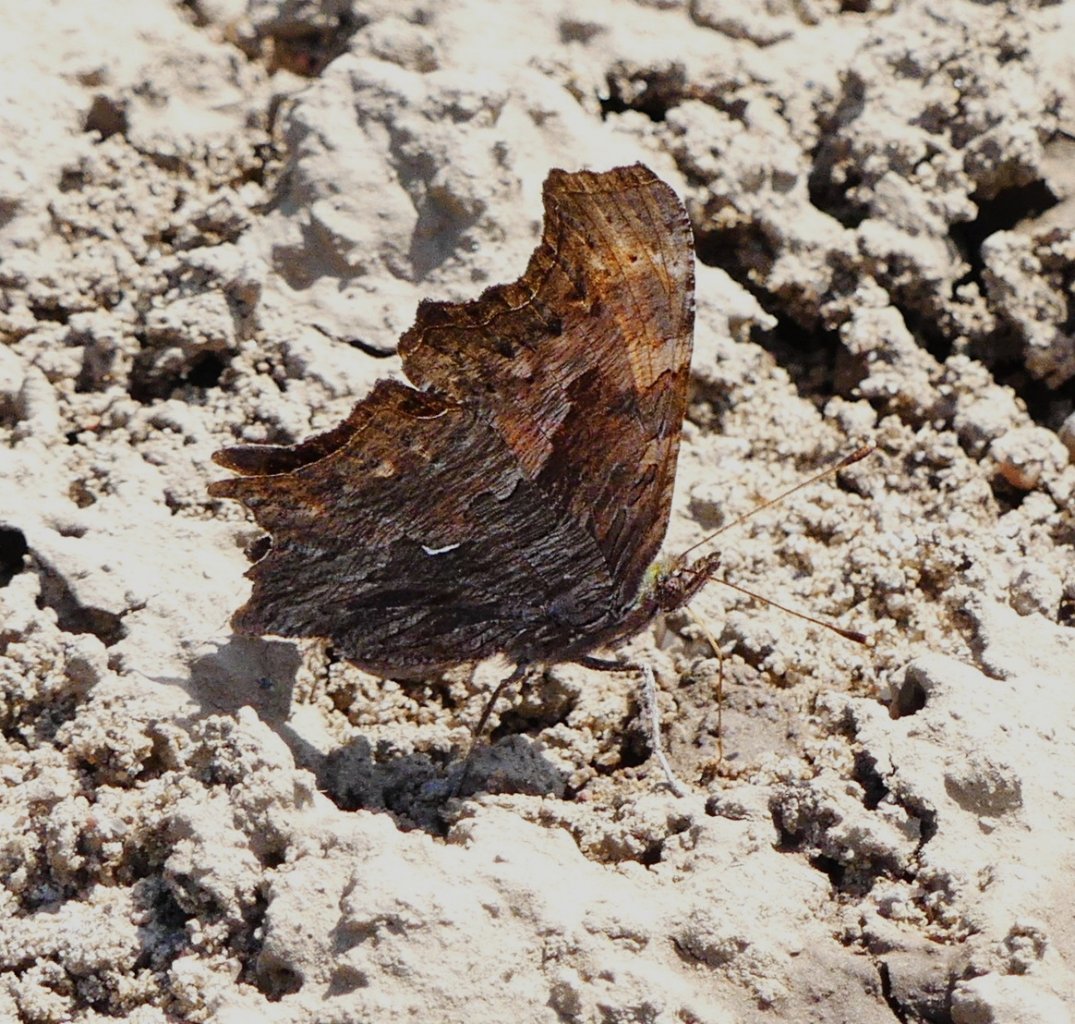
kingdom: Animalia
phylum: Arthropoda
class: Insecta
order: Lepidoptera
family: Nymphalidae
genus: Polygonia
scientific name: Polygonia progne
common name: Gray Comma
